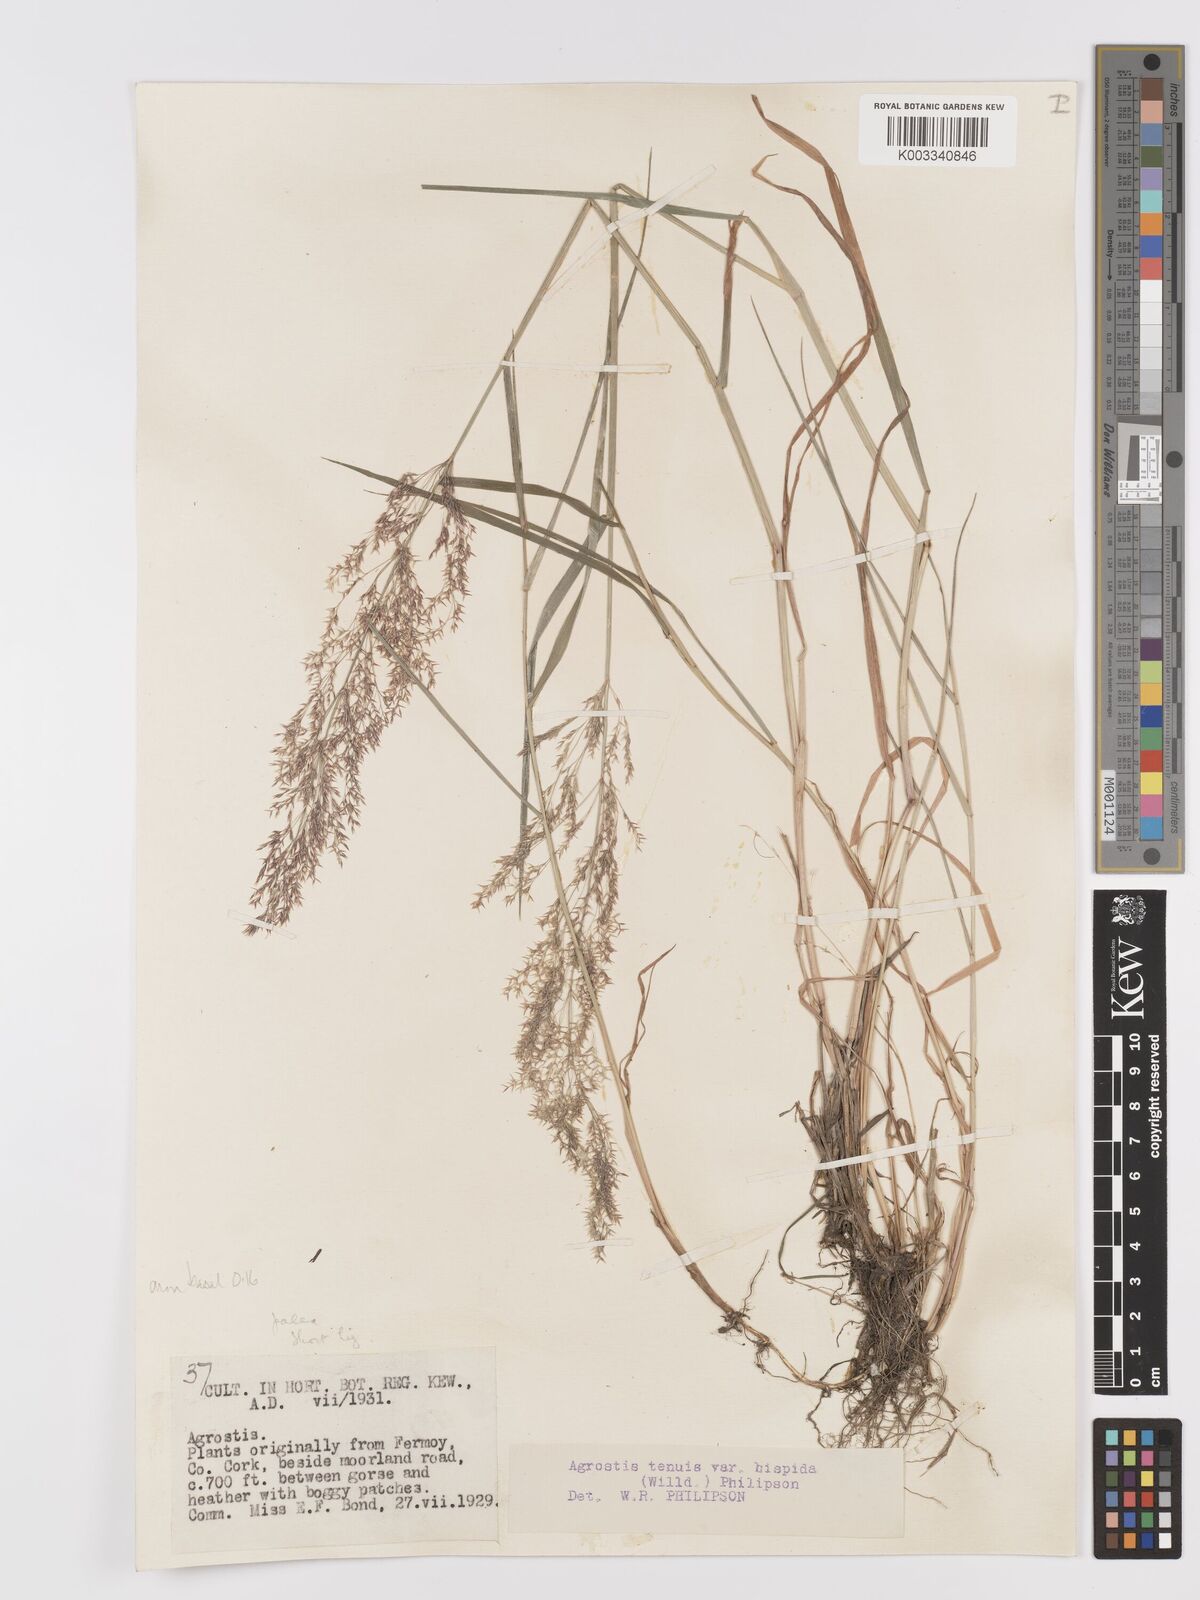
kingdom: Plantae
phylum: Tracheophyta
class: Liliopsida
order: Poales
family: Poaceae
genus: Agrostis
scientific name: Agrostis capillaris
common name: Colonial bentgrass
